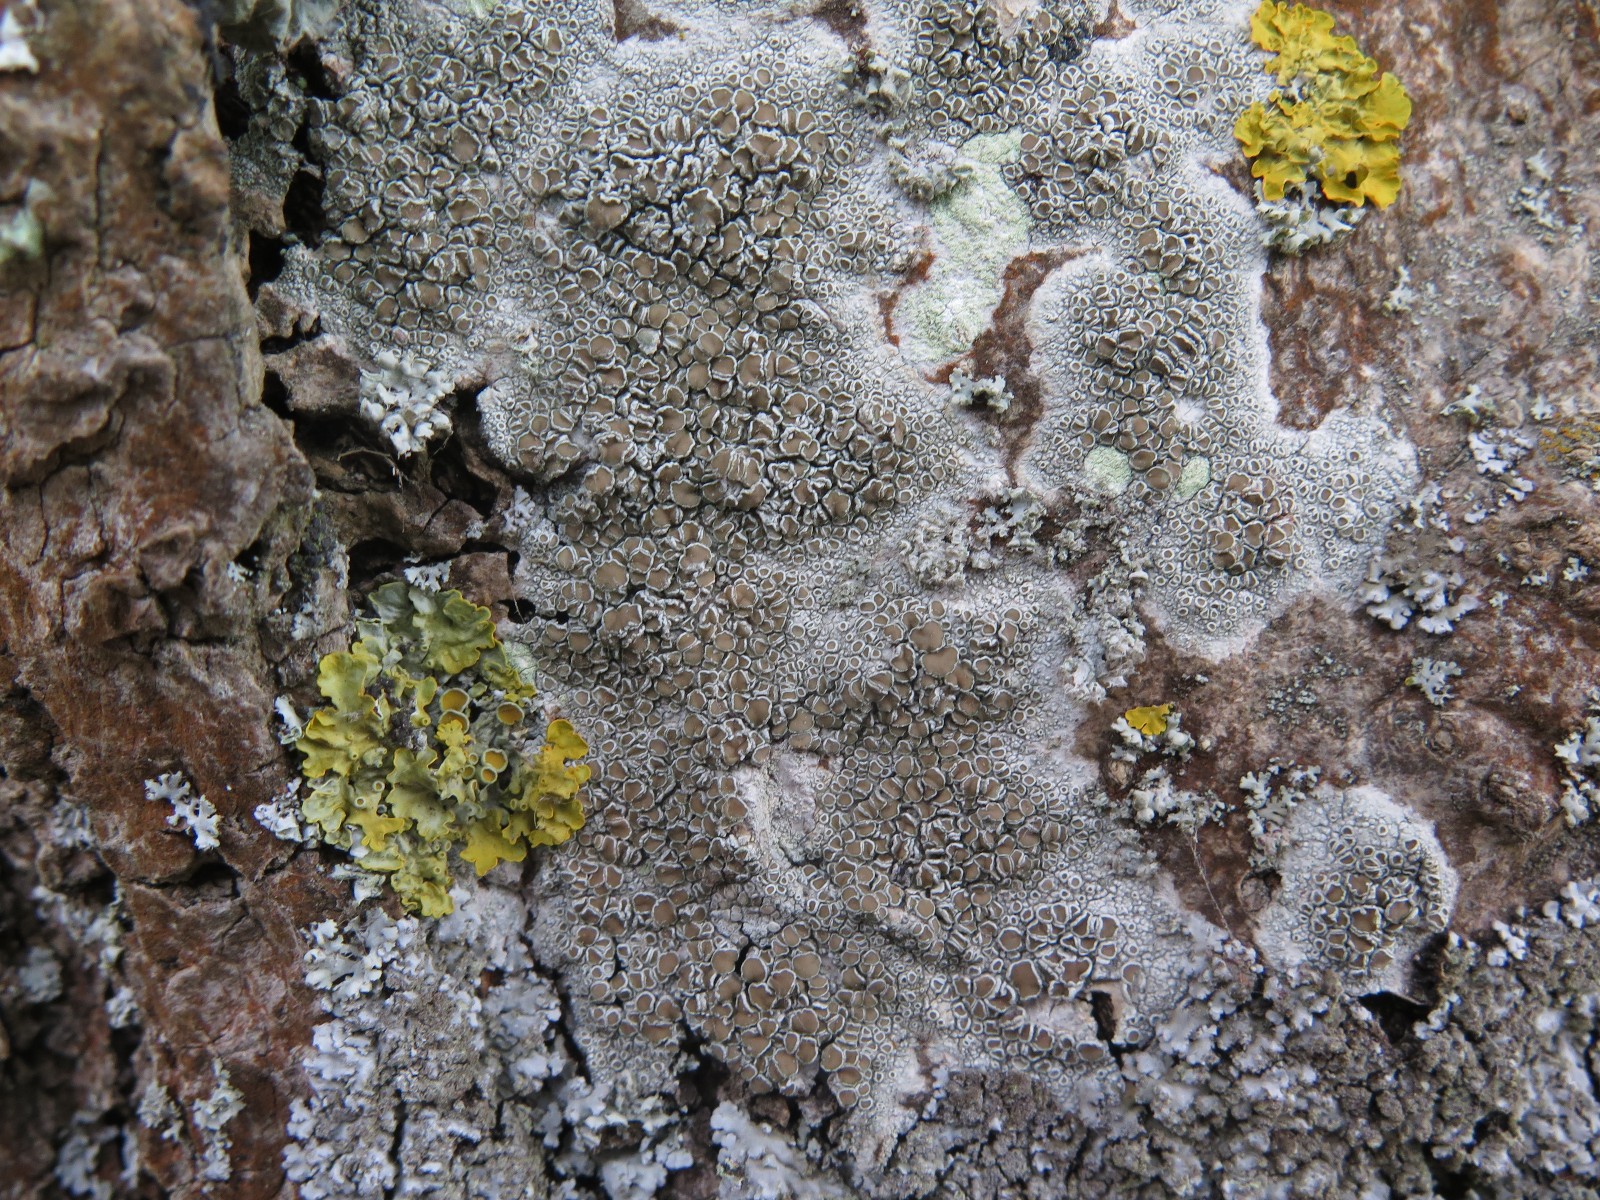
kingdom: Fungi
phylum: Ascomycota
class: Lecanoromycetes
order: Lecanorales
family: Lecanoraceae
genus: Lecanora
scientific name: Lecanora chlarotera
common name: brun kantskivelav
